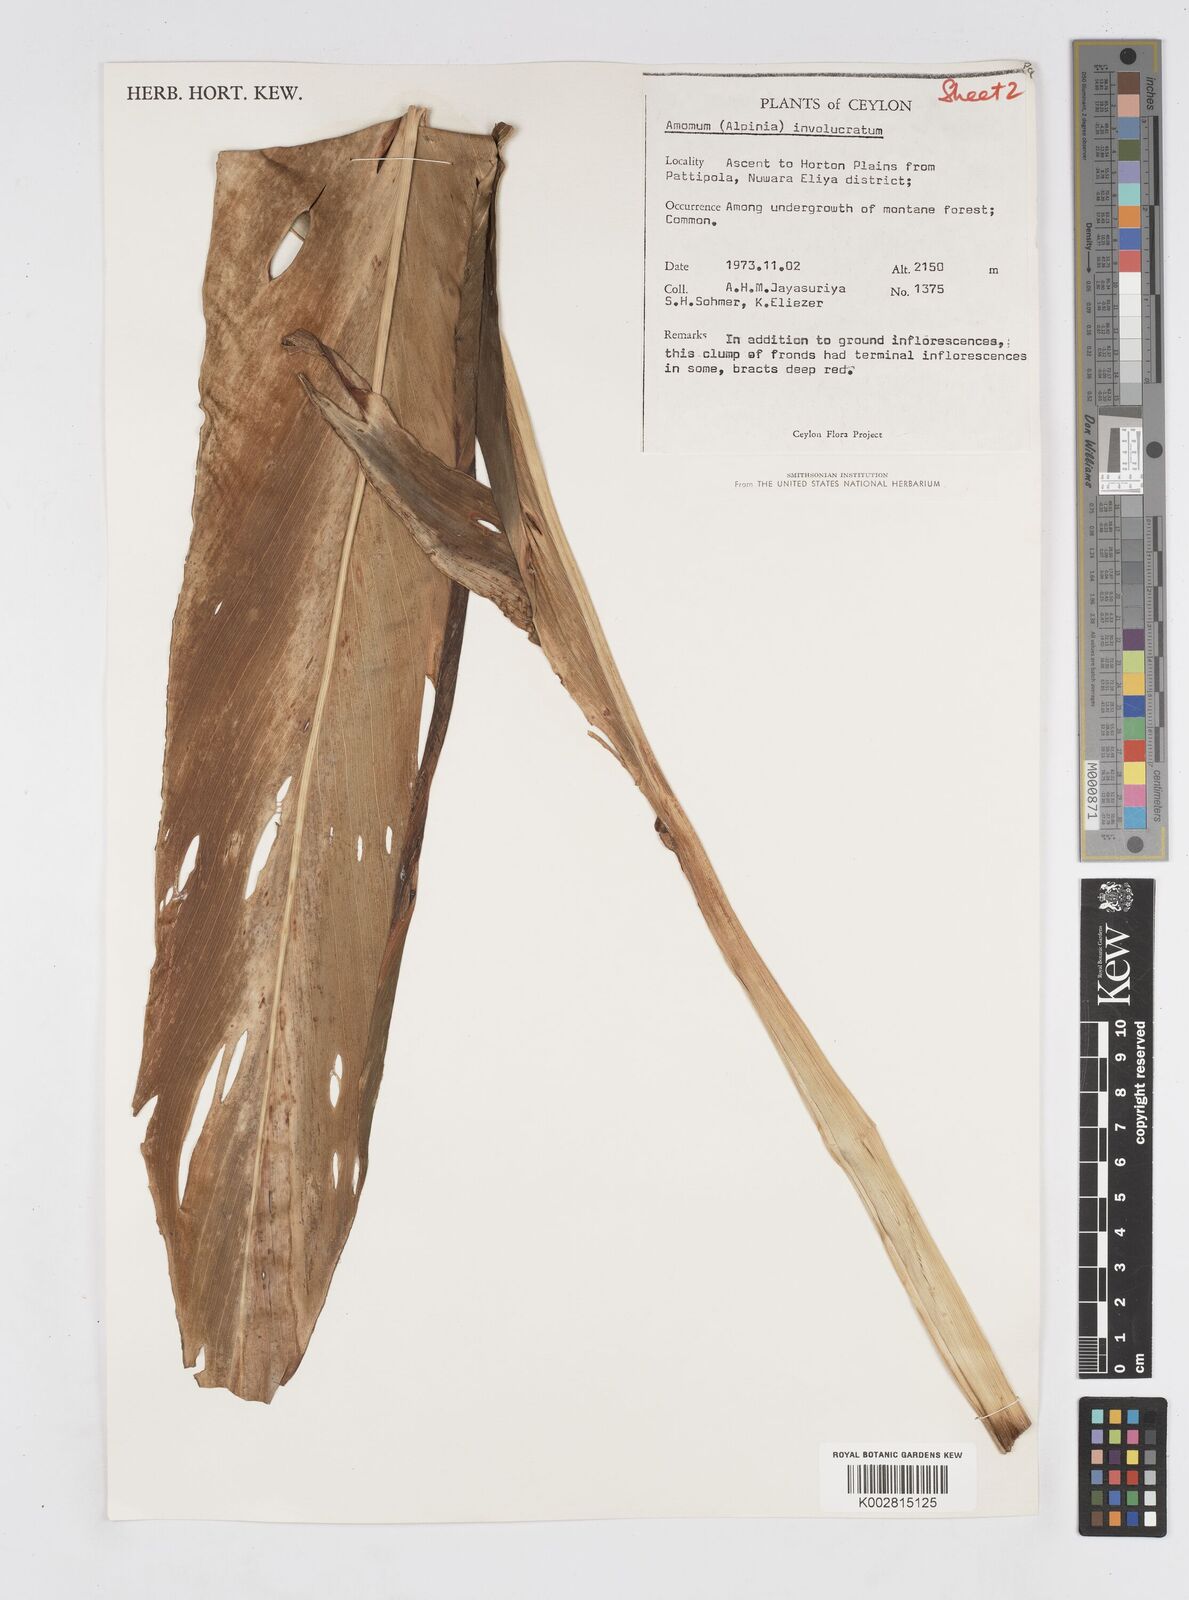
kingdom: Plantae
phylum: Tracheophyta
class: Liliopsida
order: Zingiberales
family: Zingiberaceae
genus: Alpinia
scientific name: Alpinia abundiflora
